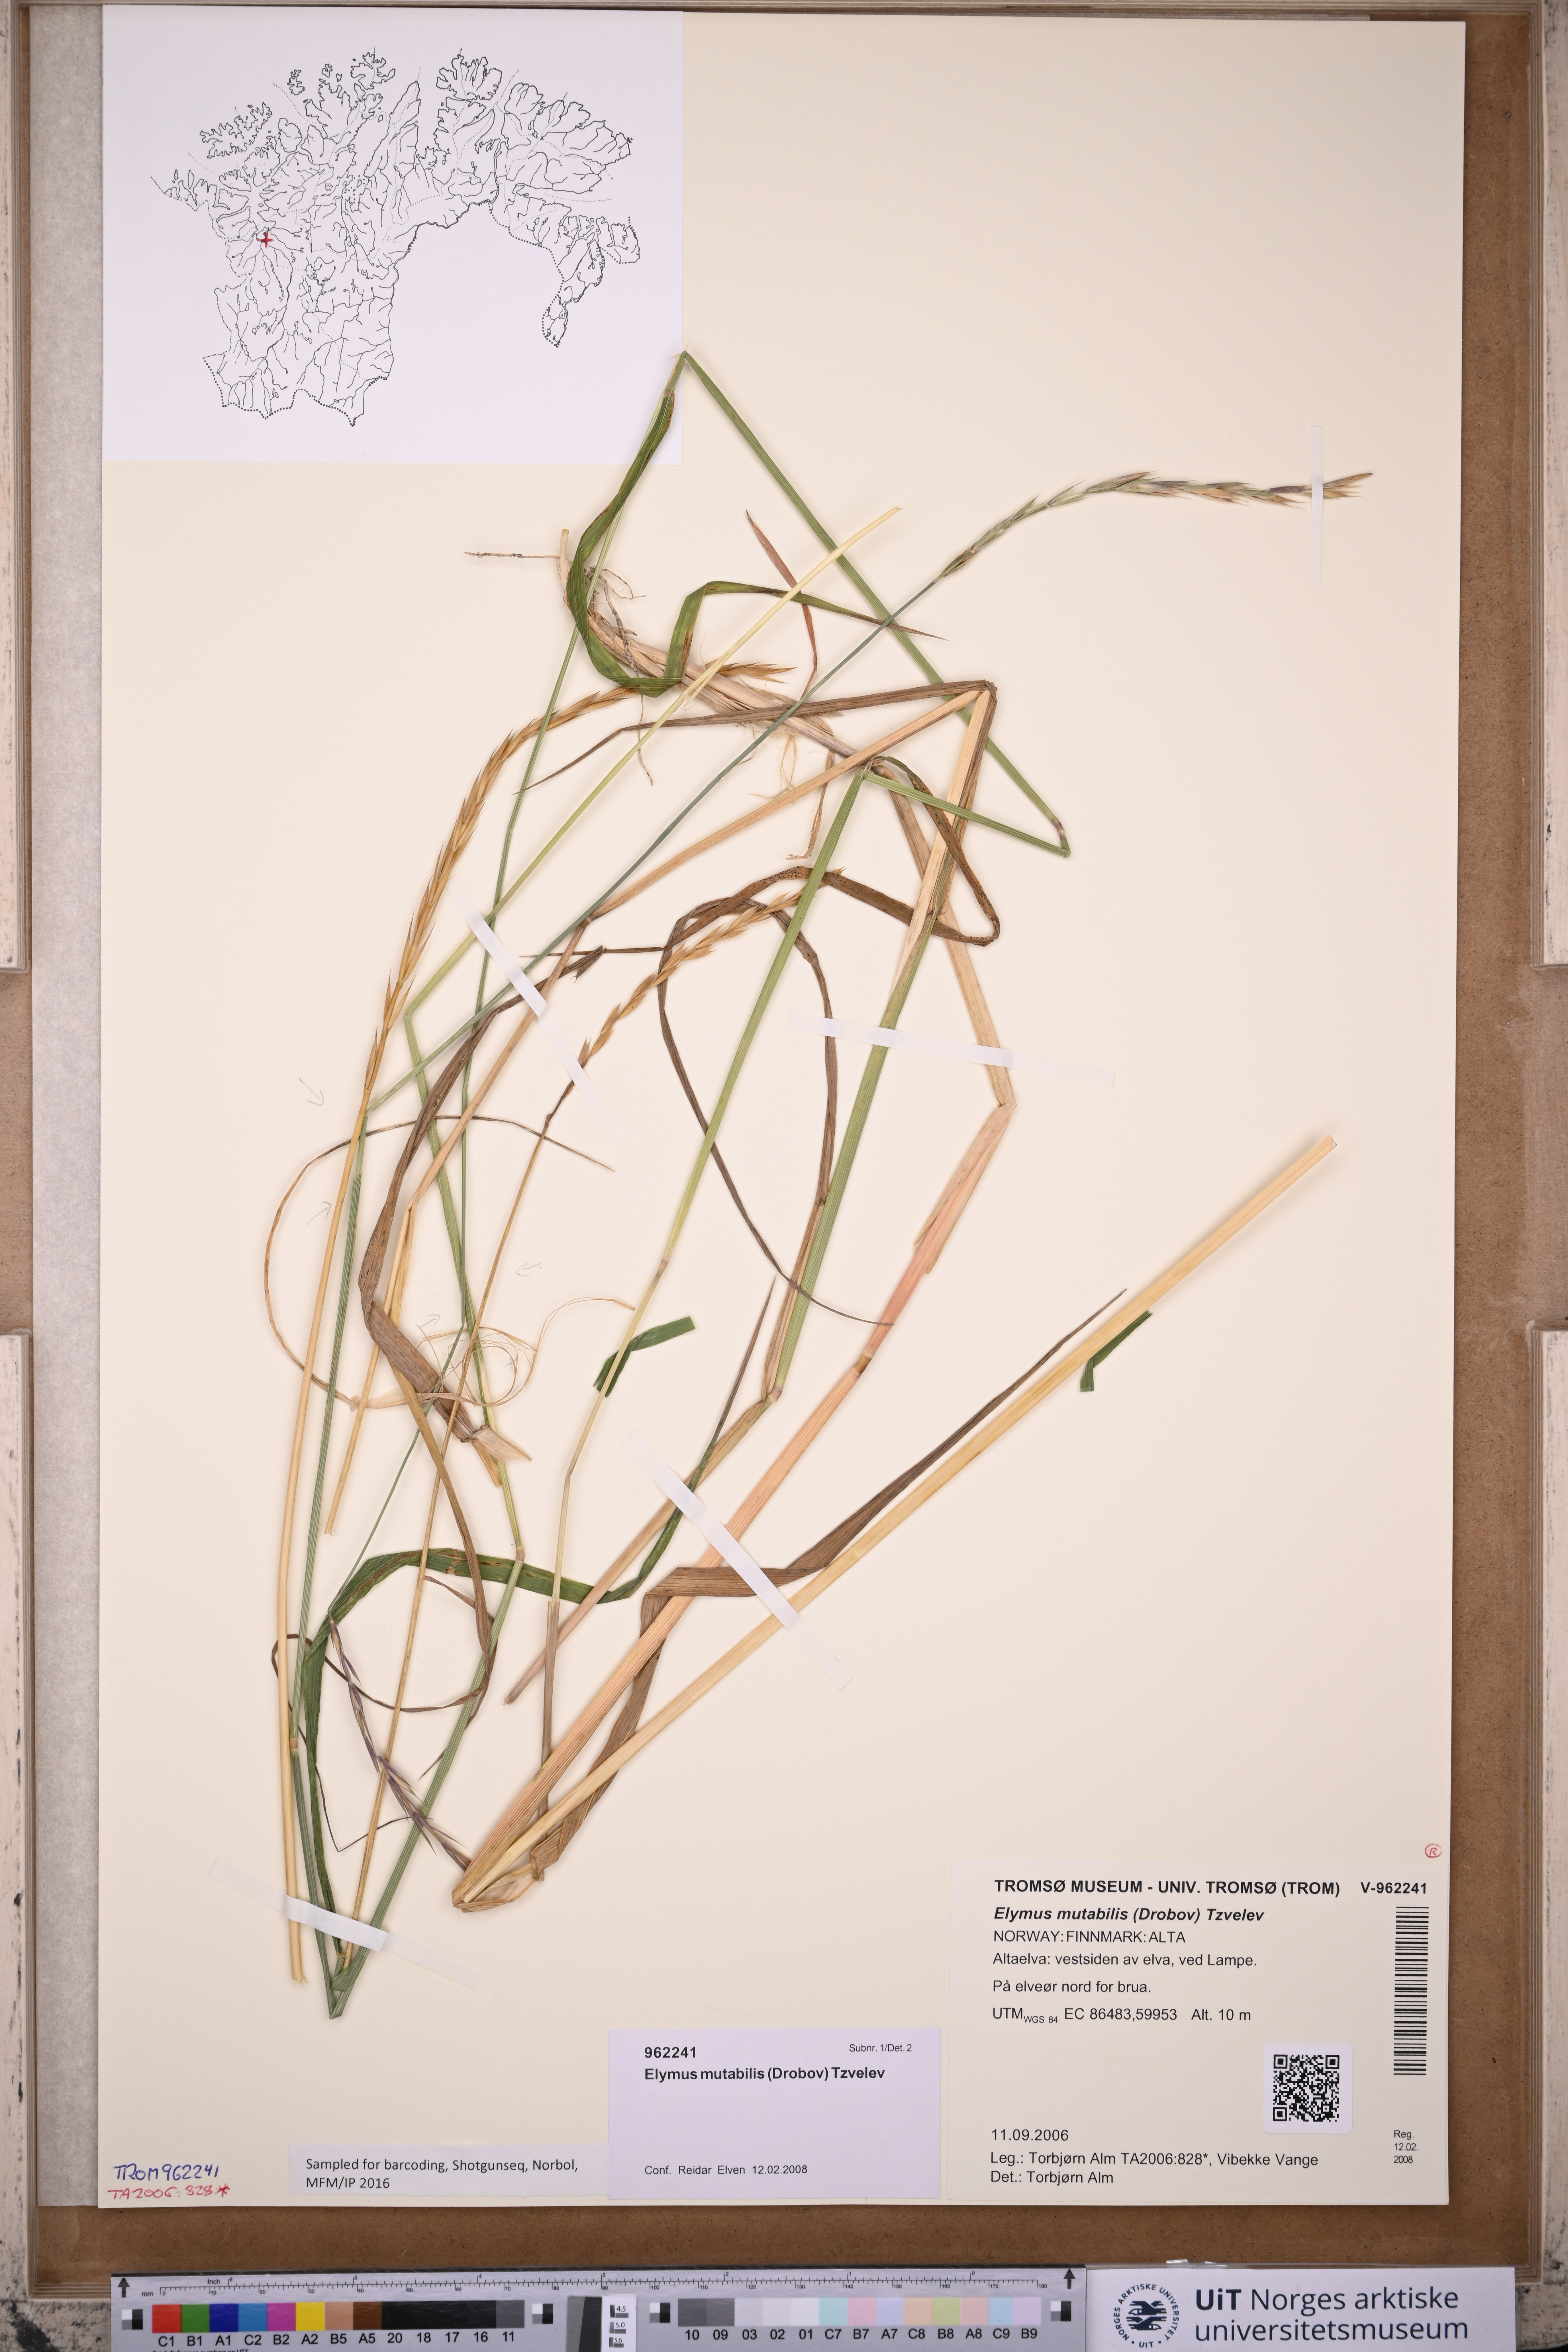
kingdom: Plantae
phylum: Tracheophyta
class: Liliopsida
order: Poales
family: Poaceae
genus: Elymus
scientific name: Elymus mutabilis
